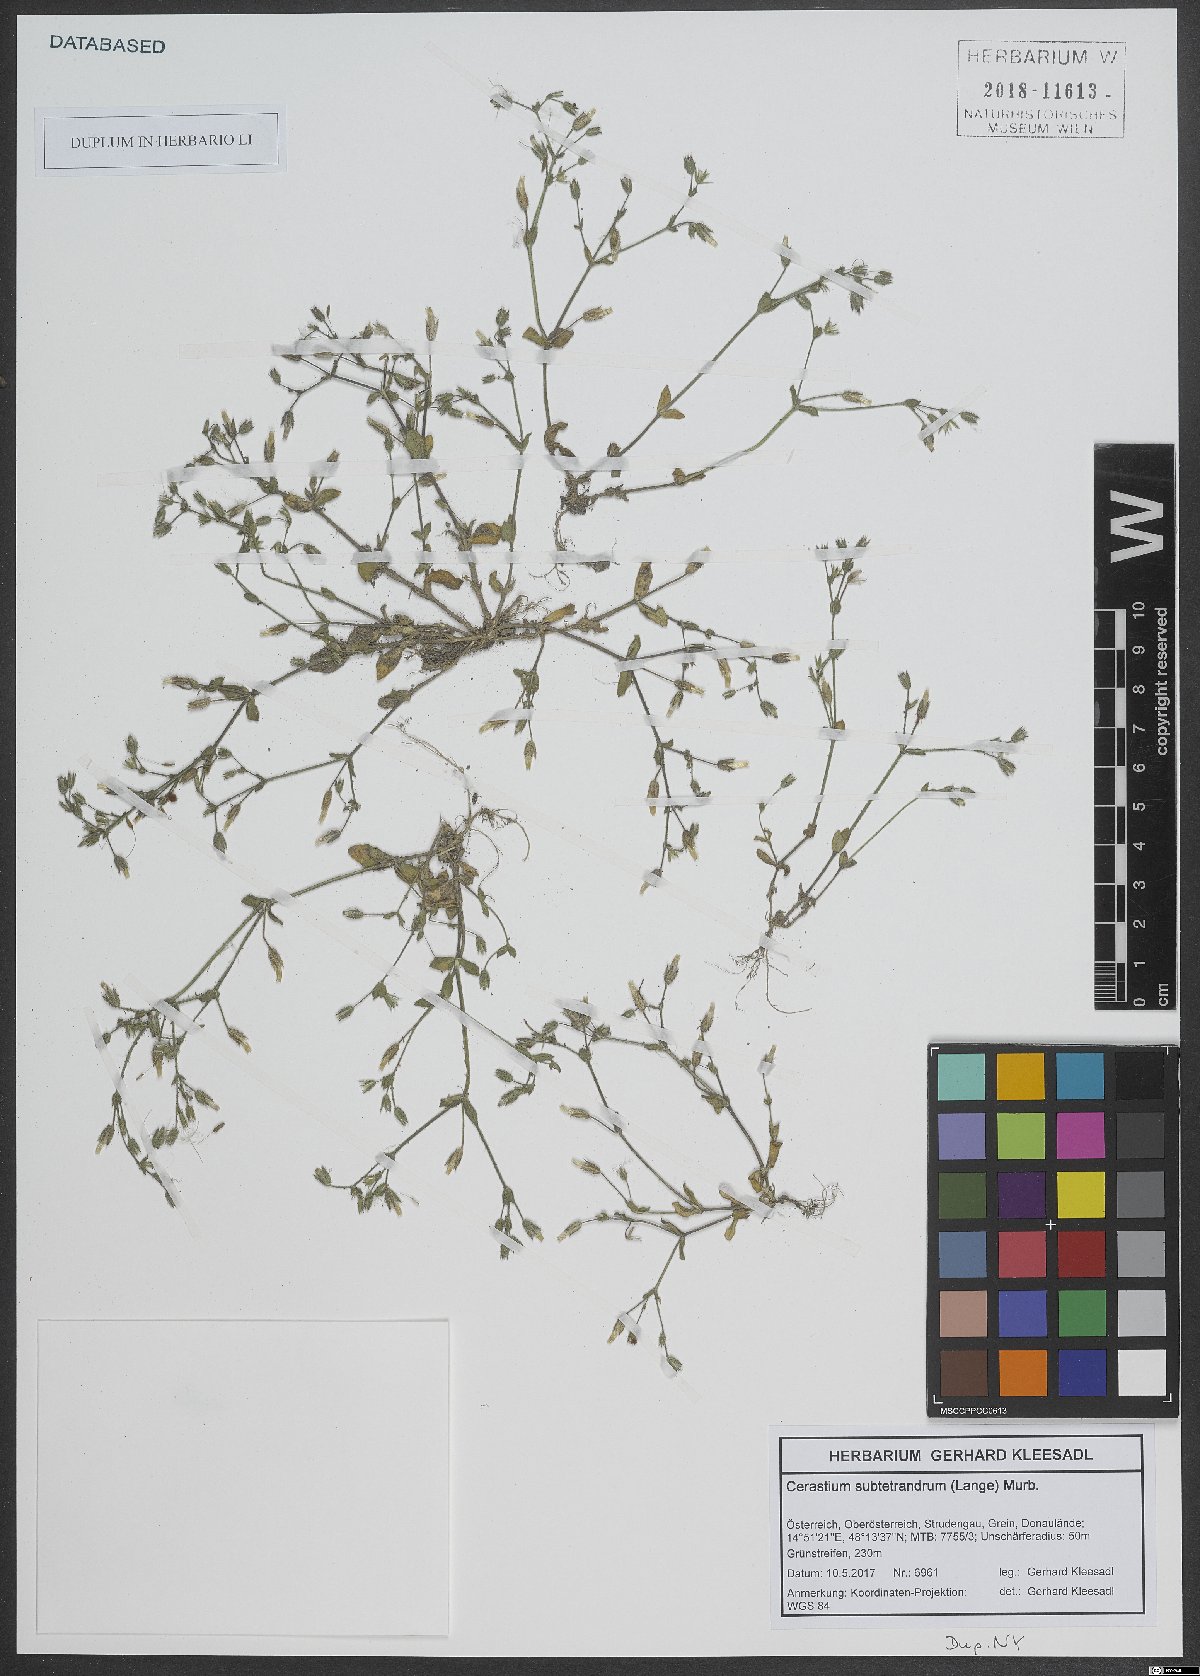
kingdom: Plantae
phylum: Tracheophyta
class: Magnoliopsida
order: Caryophyllales
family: Caryophyllaceae
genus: Cerastium
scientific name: Cerastium pumilum
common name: Dwarf mouse-ear
